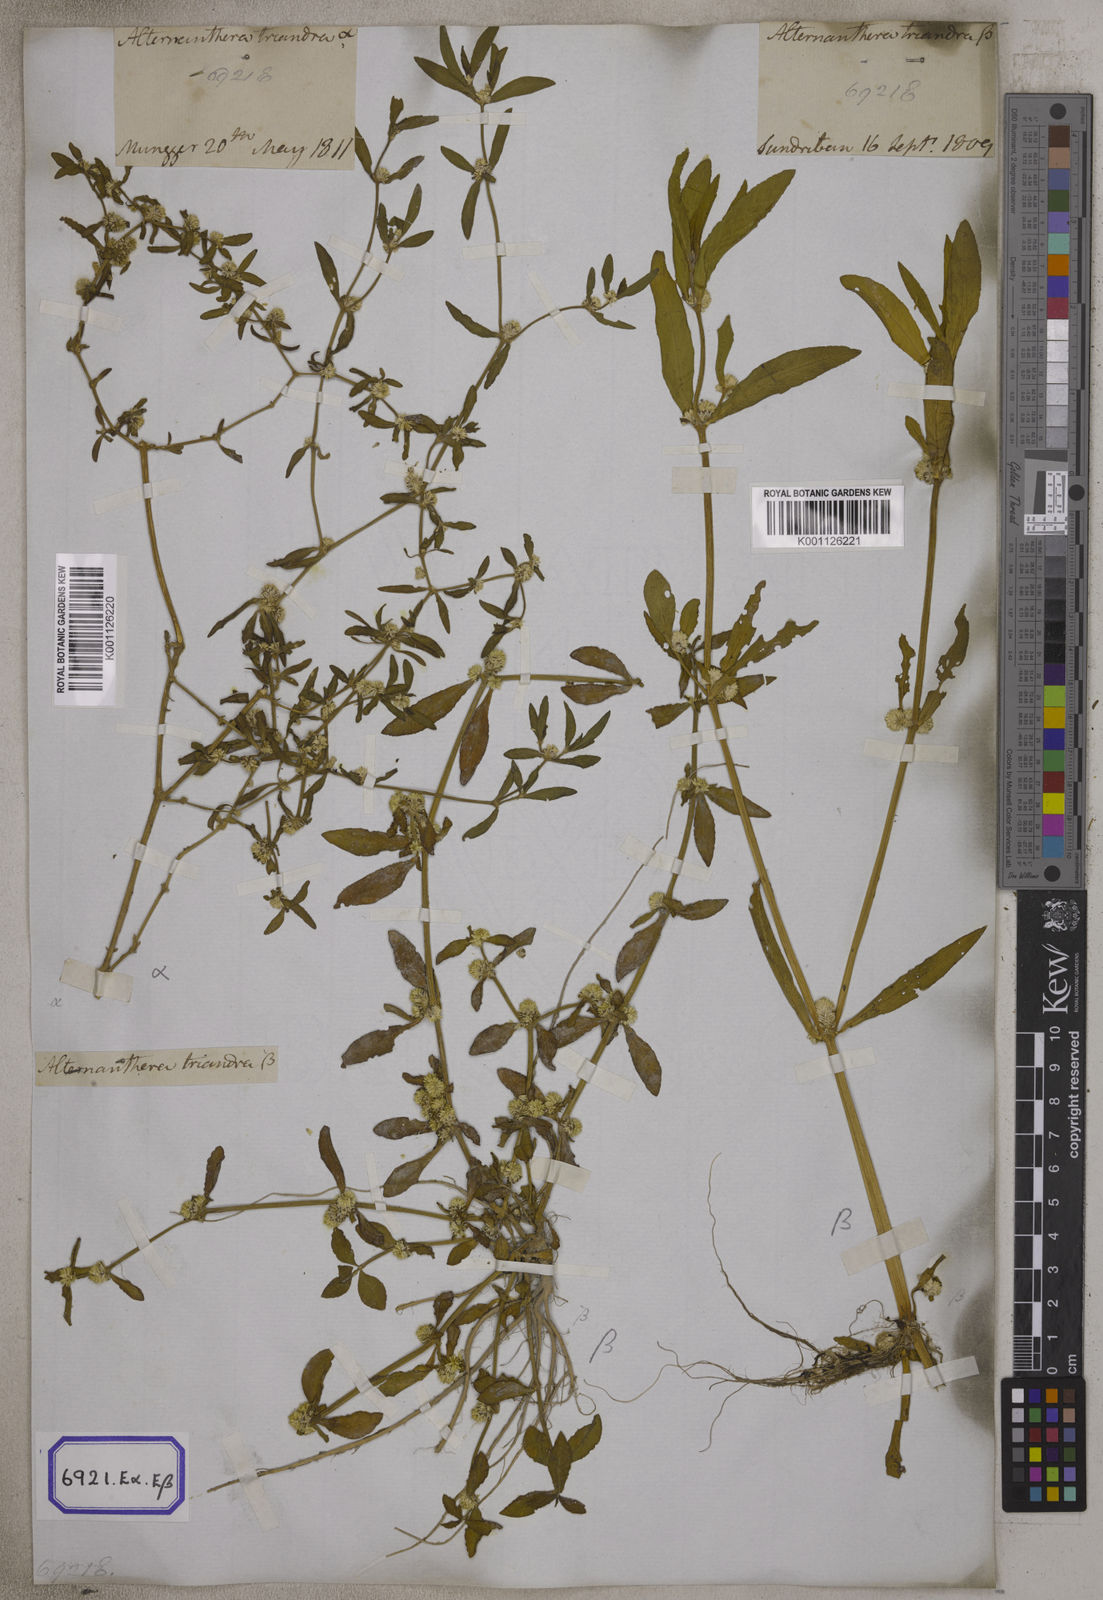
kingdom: Plantae
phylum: Tracheophyta
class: Magnoliopsida
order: Caryophyllales
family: Amaranthaceae
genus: Alternanthera
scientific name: Alternanthera
